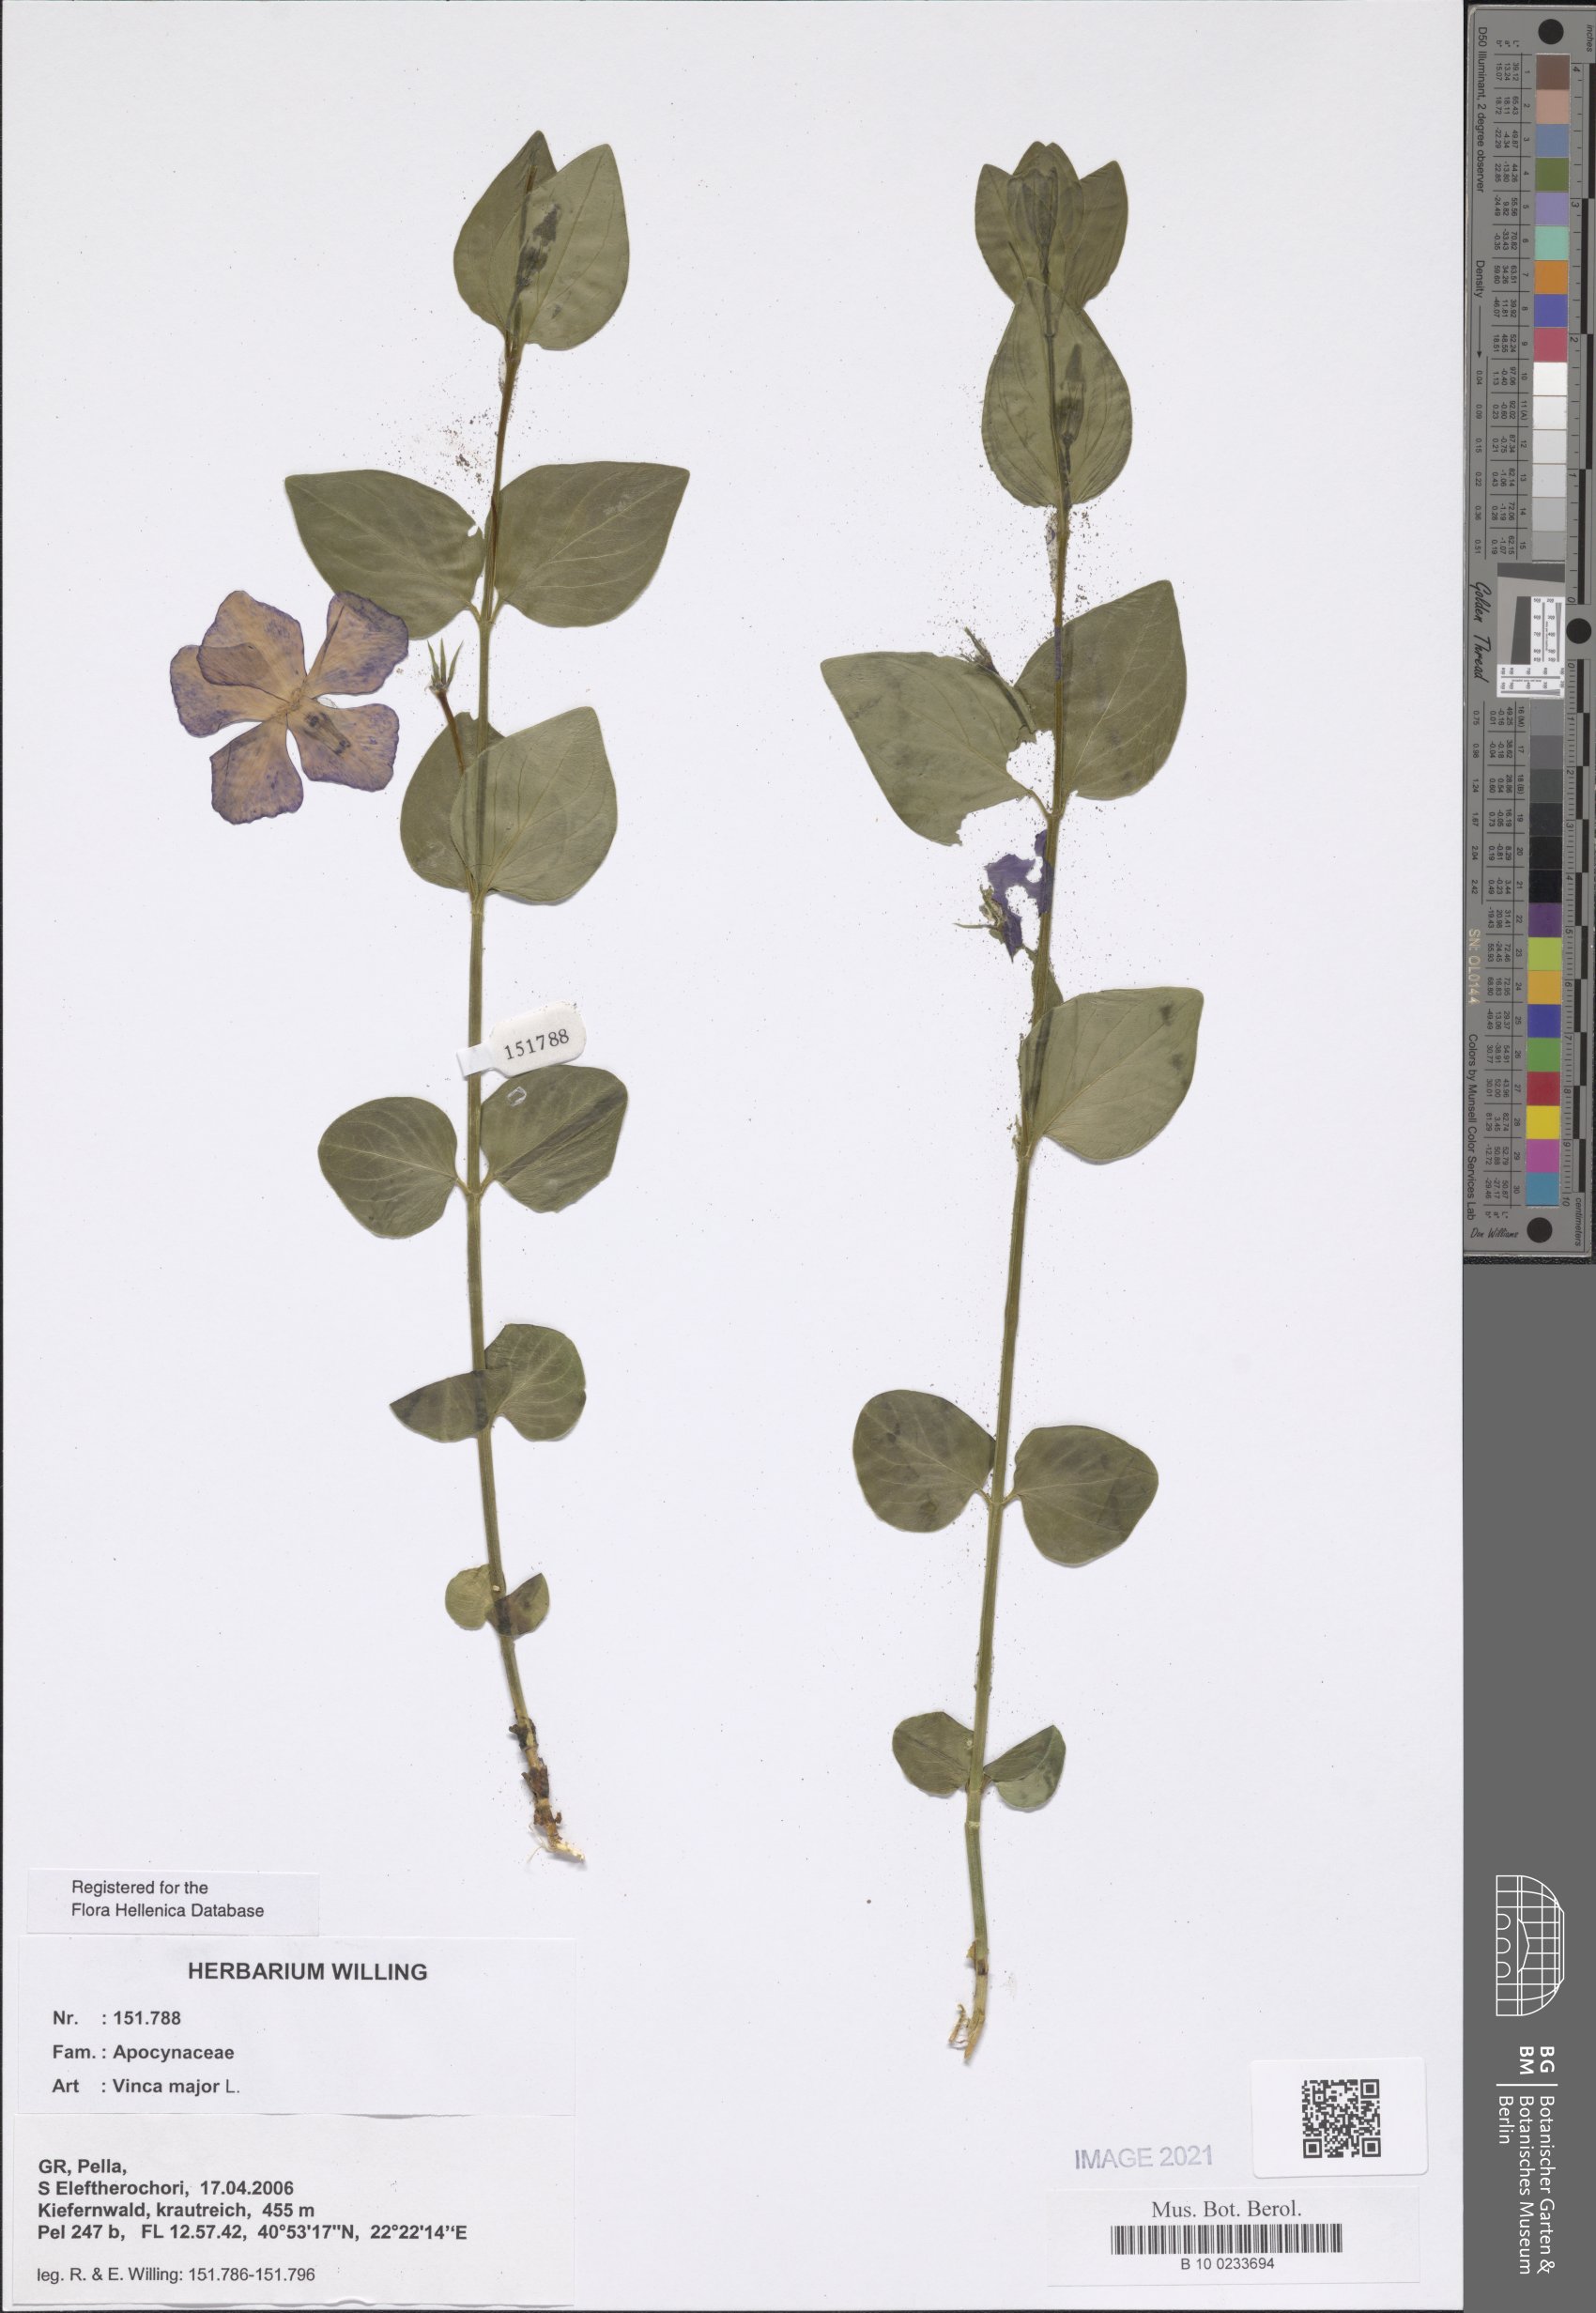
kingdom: Plantae
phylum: Tracheophyta
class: Magnoliopsida
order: Gentianales
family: Apocynaceae
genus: Vinca
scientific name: Vinca major
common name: Greater periwinkle
